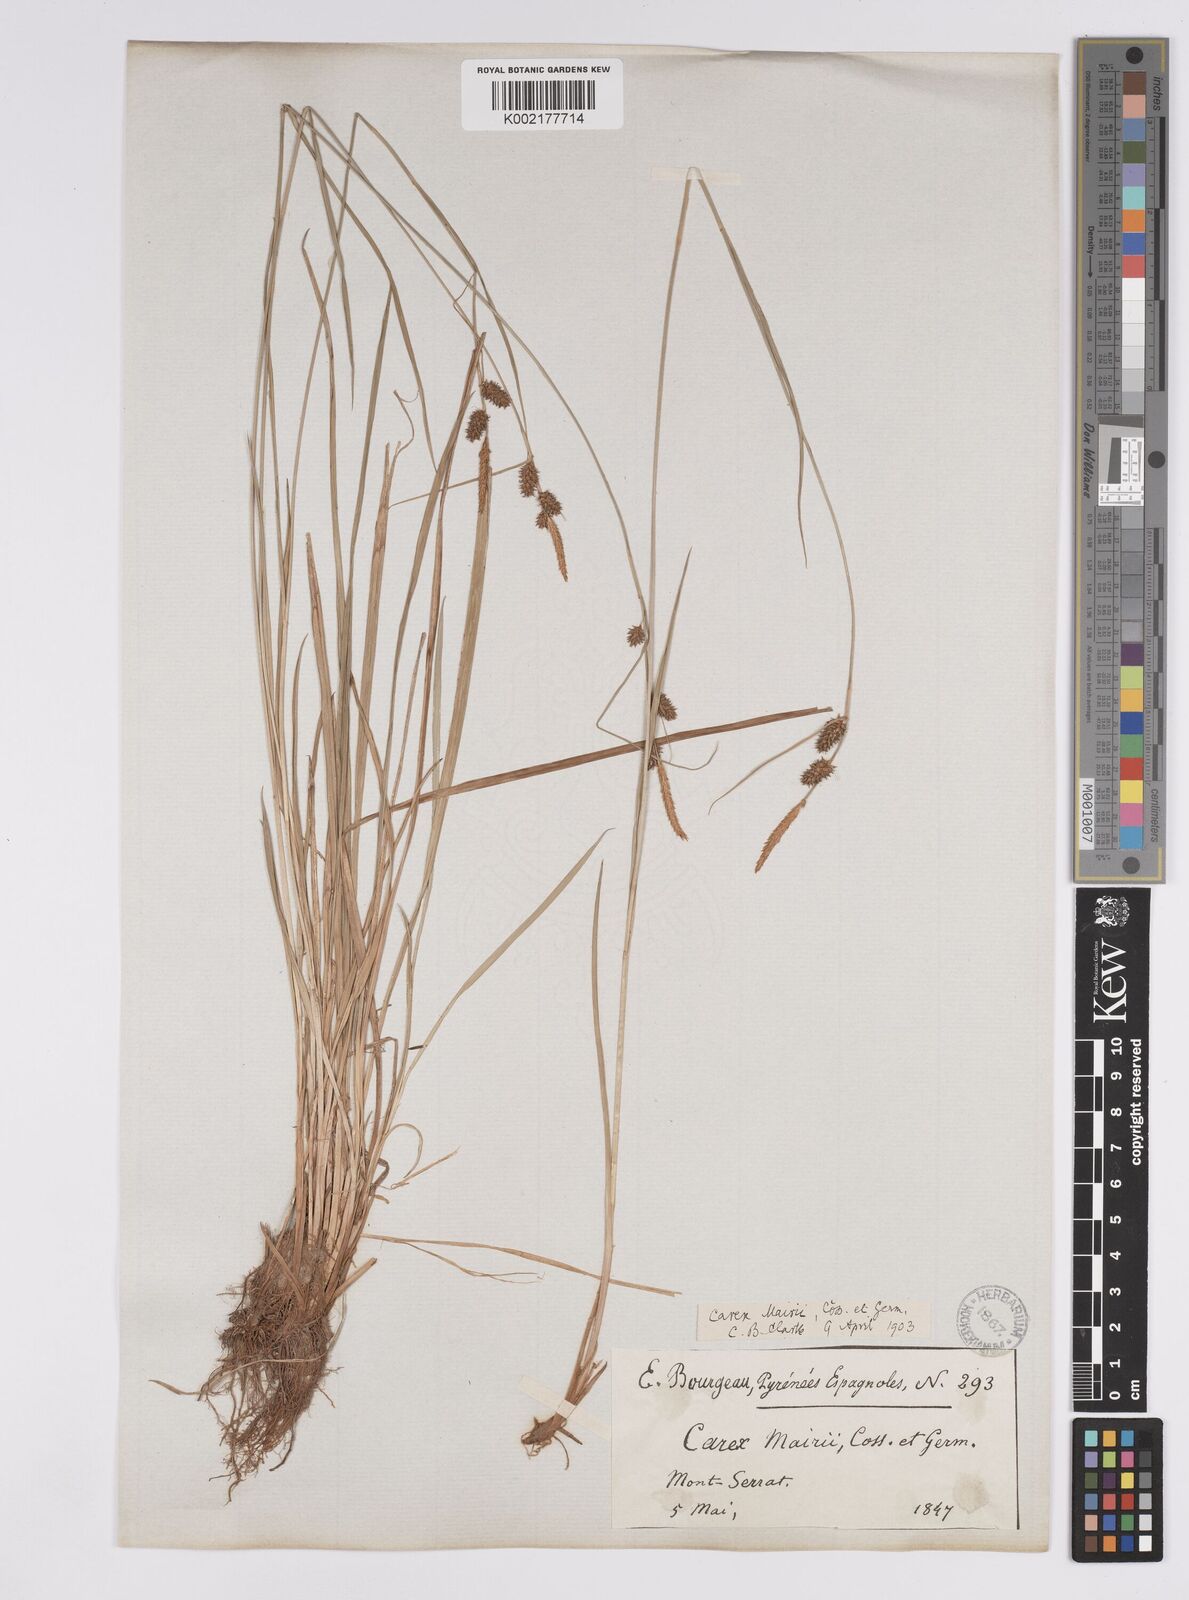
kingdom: Plantae
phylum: Tracheophyta
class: Liliopsida
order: Poales
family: Cyperaceae
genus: Carex
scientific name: Carex mairei
